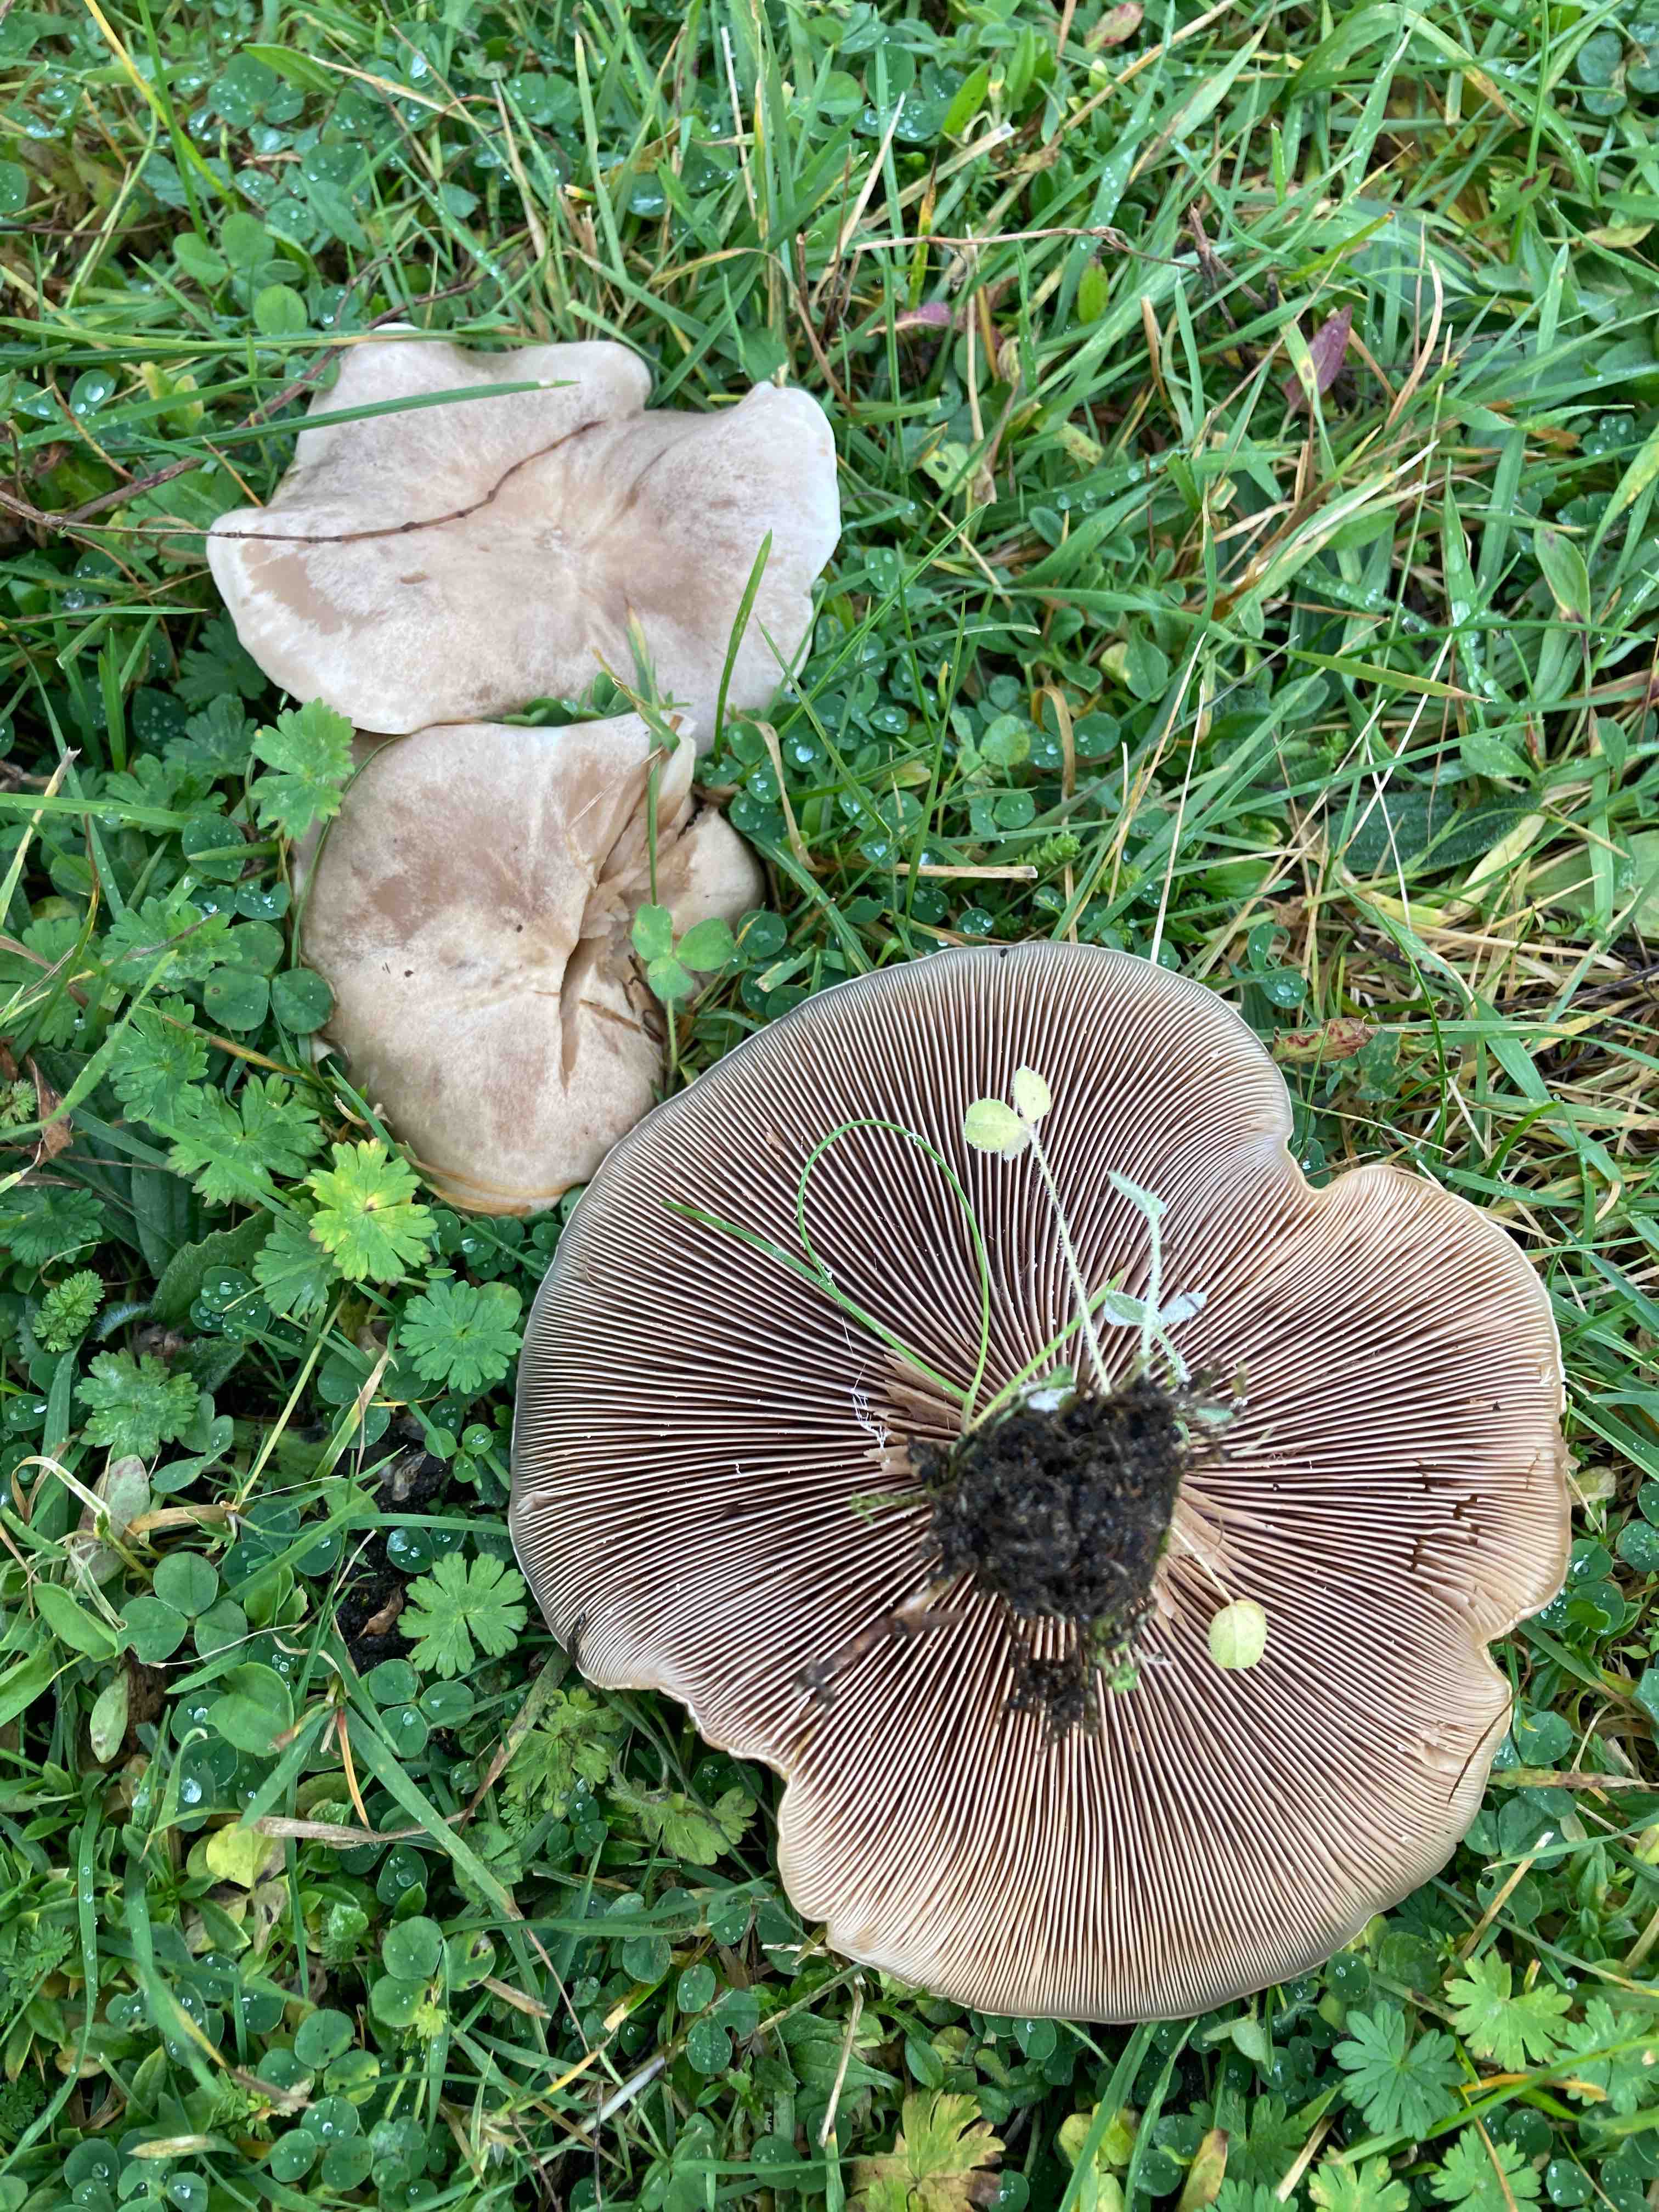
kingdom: Fungi
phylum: Basidiomycota
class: Agaricomycetes
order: Agaricales
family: Tricholomataceae
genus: Lepista
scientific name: Lepista panaeolus
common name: marmoreret hekseringshat
